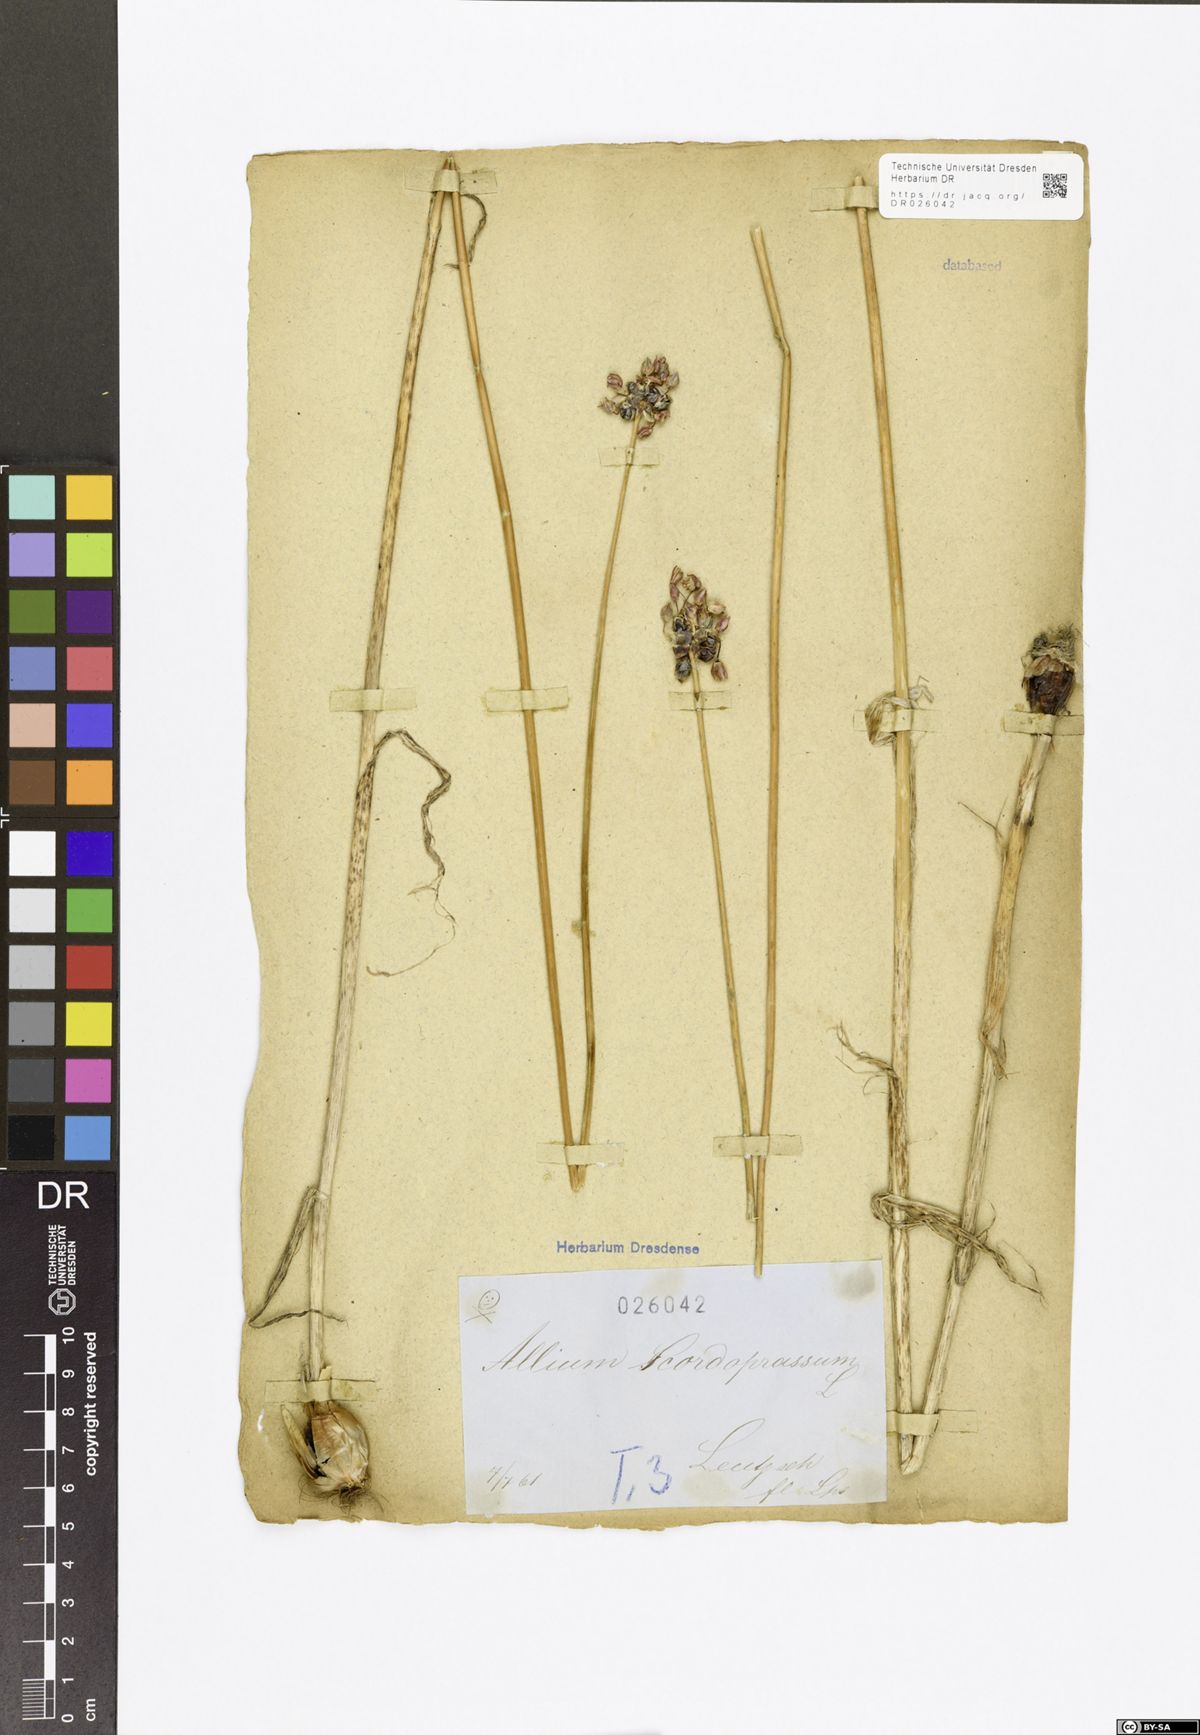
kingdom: Plantae
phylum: Tracheophyta
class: Liliopsida
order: Asparagales
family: Amaryllidaceae
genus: Allium
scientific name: Allium scorodoprasum
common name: Sand leek
